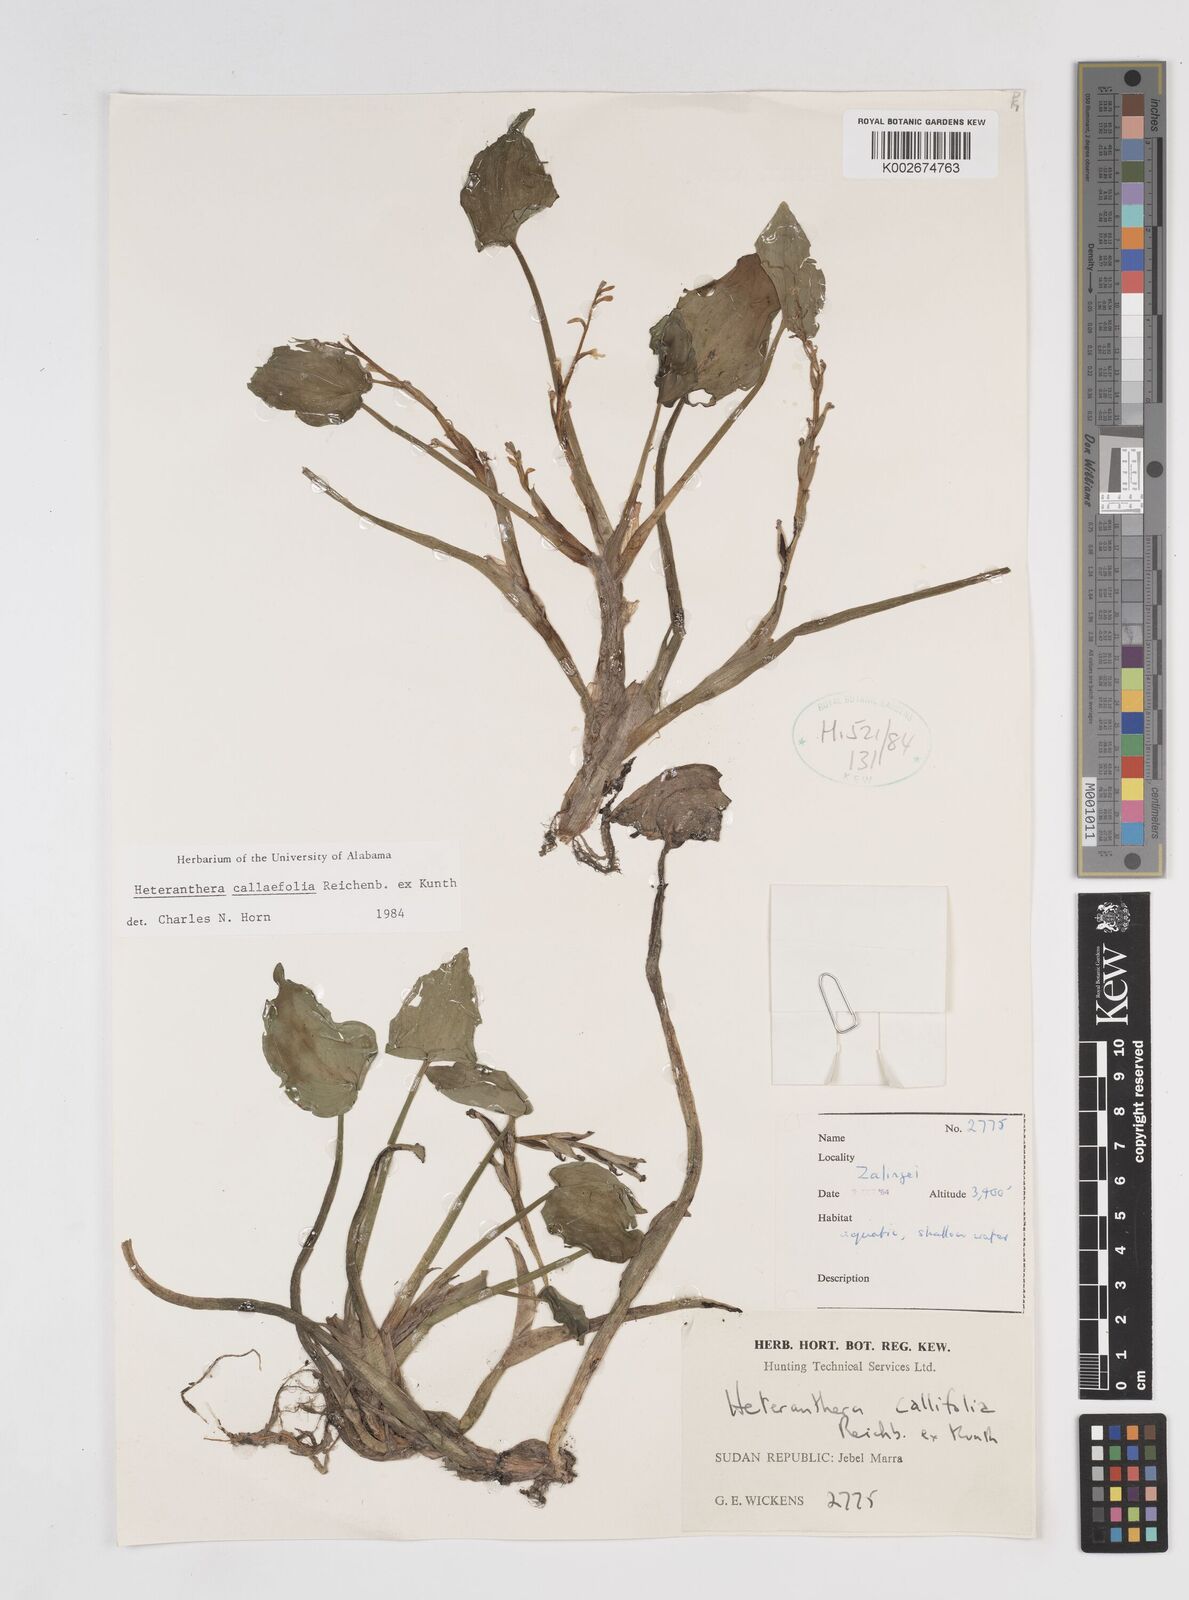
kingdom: Plantae
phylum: Tracheophyta
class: Liliopsida
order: Commelinales
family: Pontederiaceae
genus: Heteranthera
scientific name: Heteranthera callifolia
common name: Mud plantain
